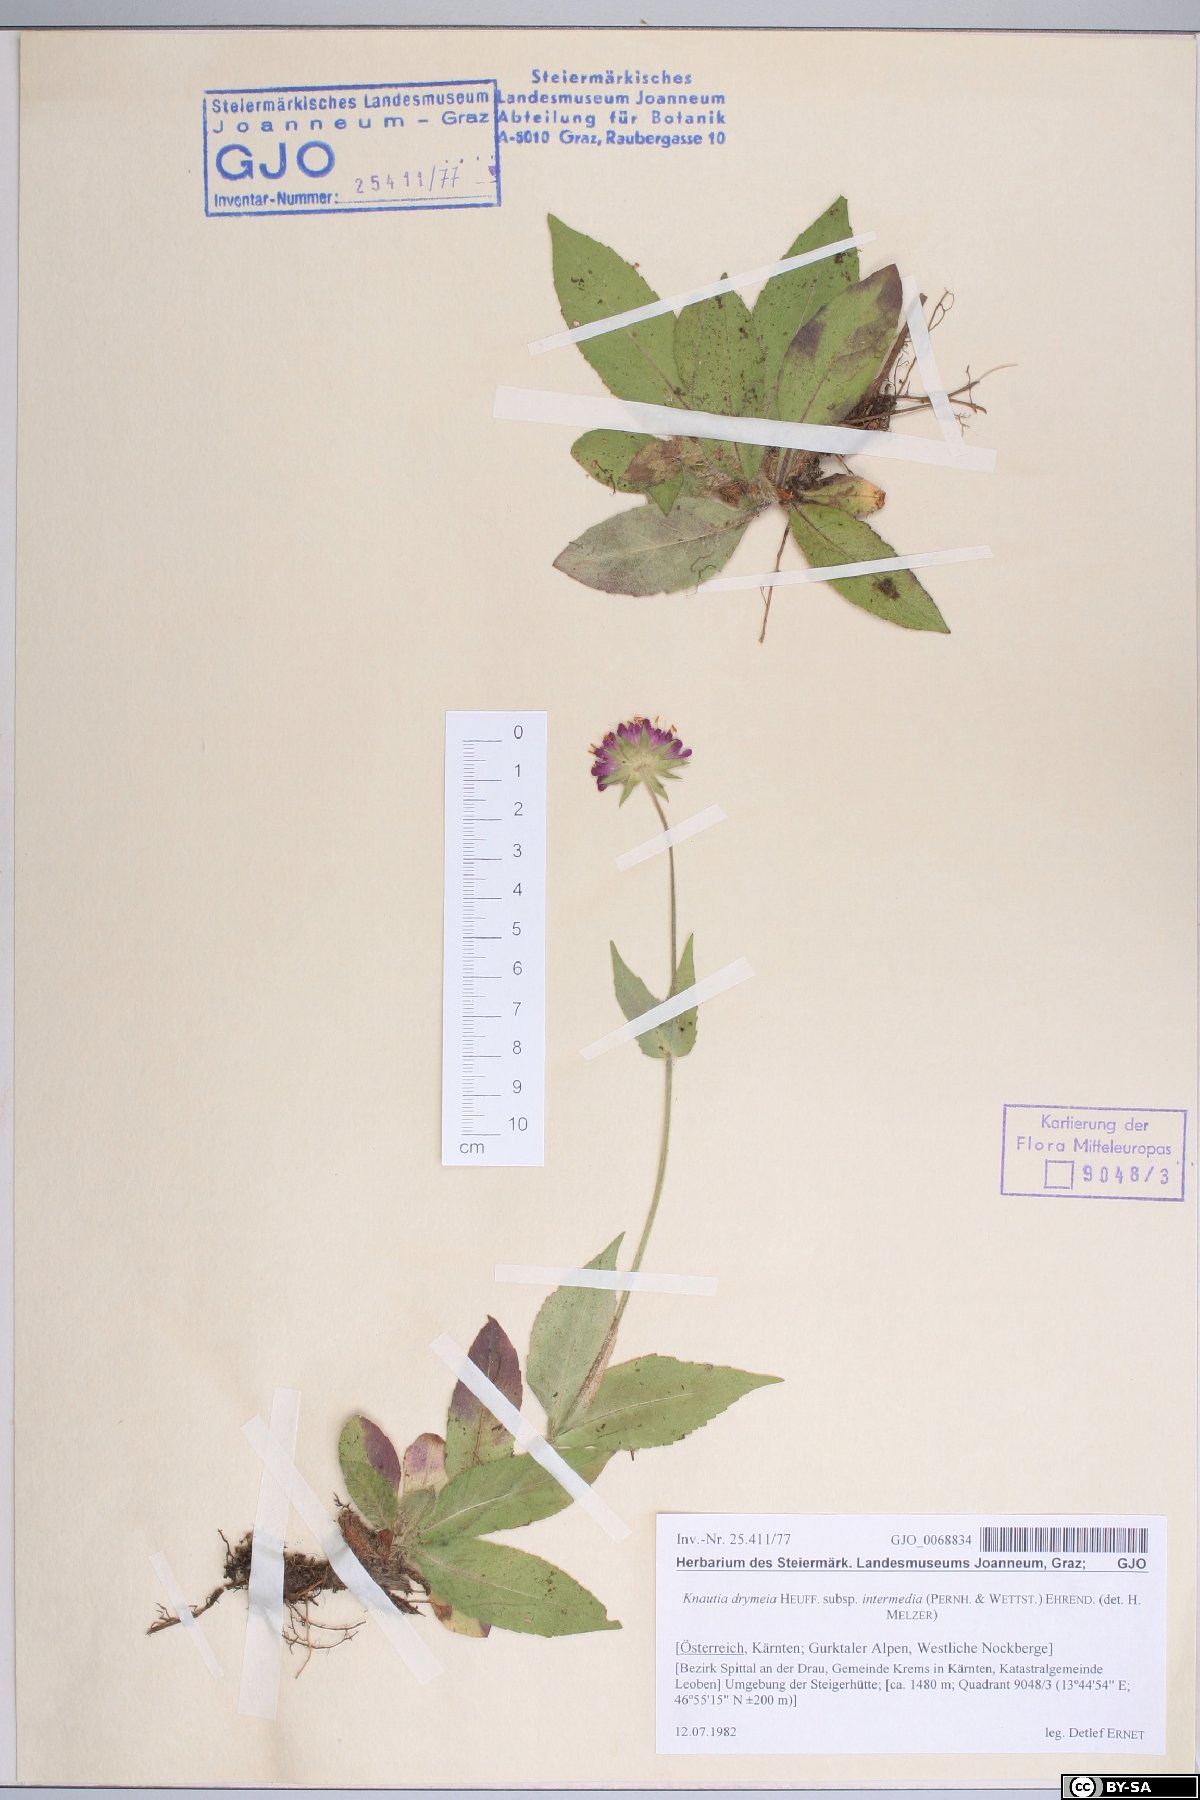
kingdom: Plantae
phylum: Tracheophyta
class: Magnoliopsida
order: Dipsacales
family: Caprifoliaceae
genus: Knautia
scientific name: Knautia drymeia
